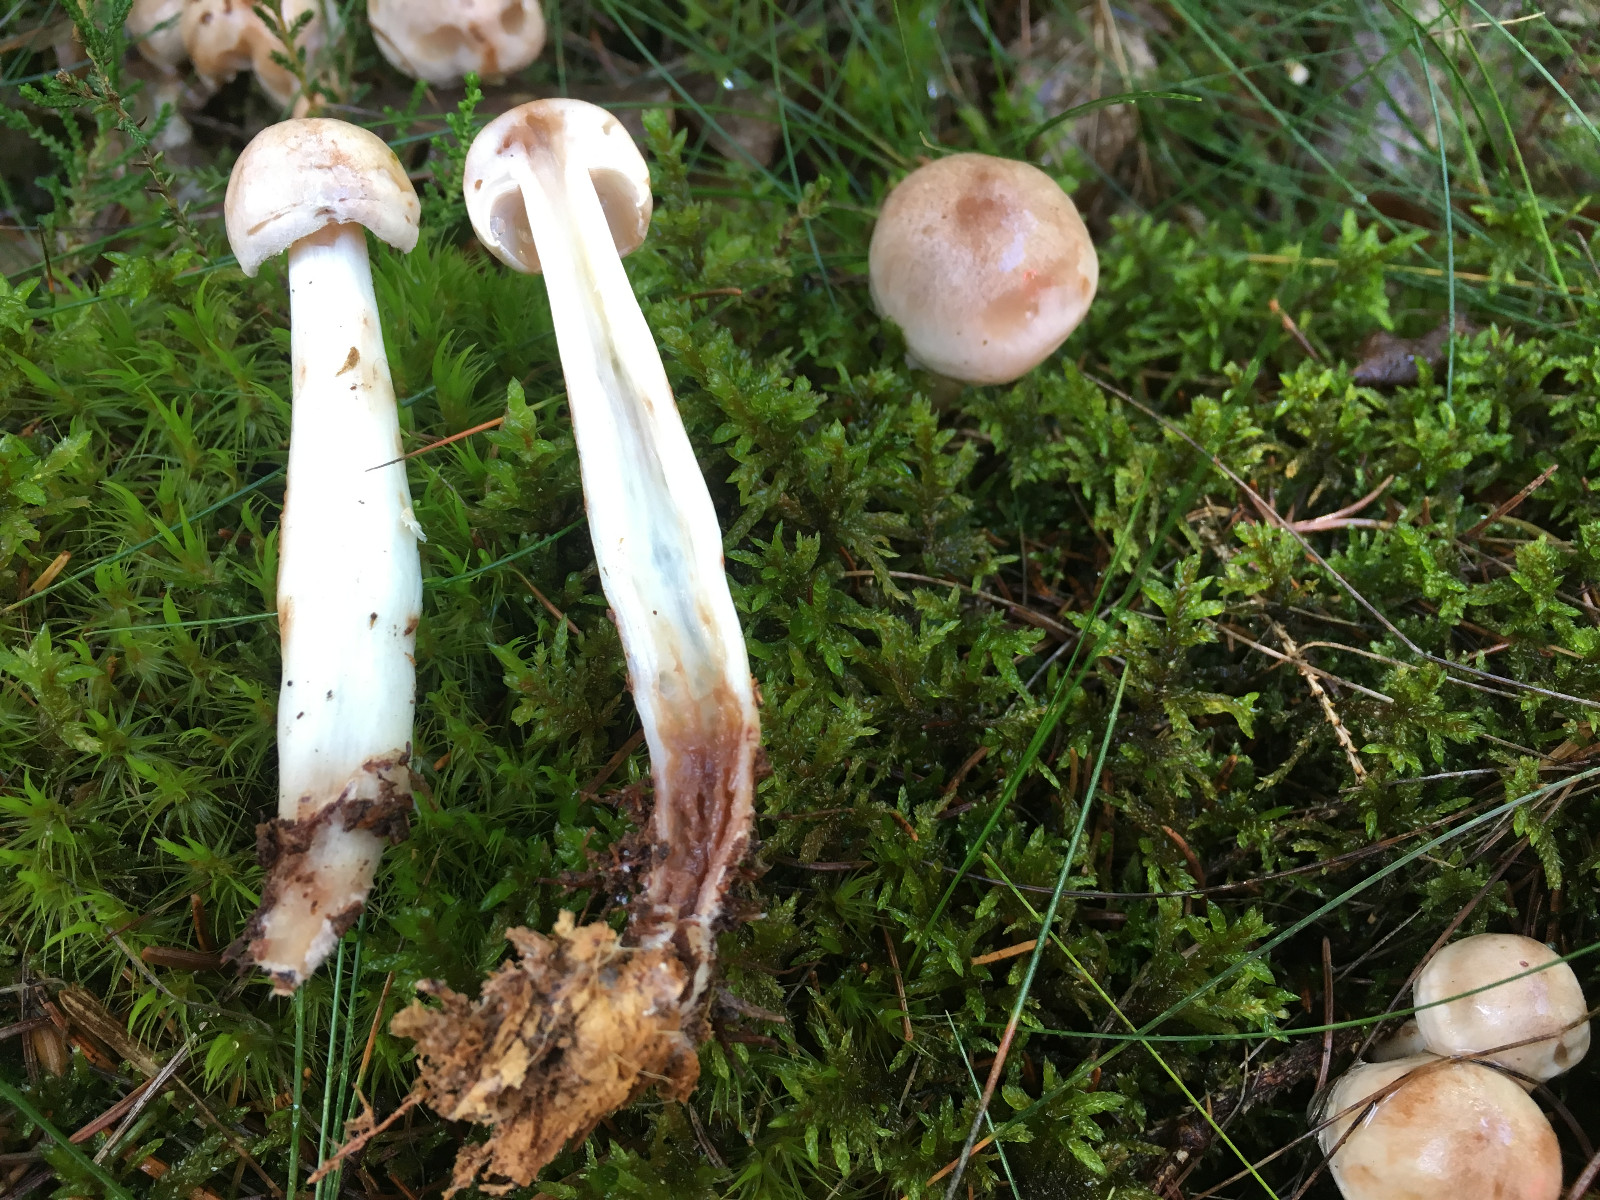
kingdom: Fungi
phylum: Basidiomycota
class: Agaricomycetes
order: Agaricales
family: Omphalotaceae
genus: Rhodocollybia
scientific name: Rhodocollybia
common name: fladhat
